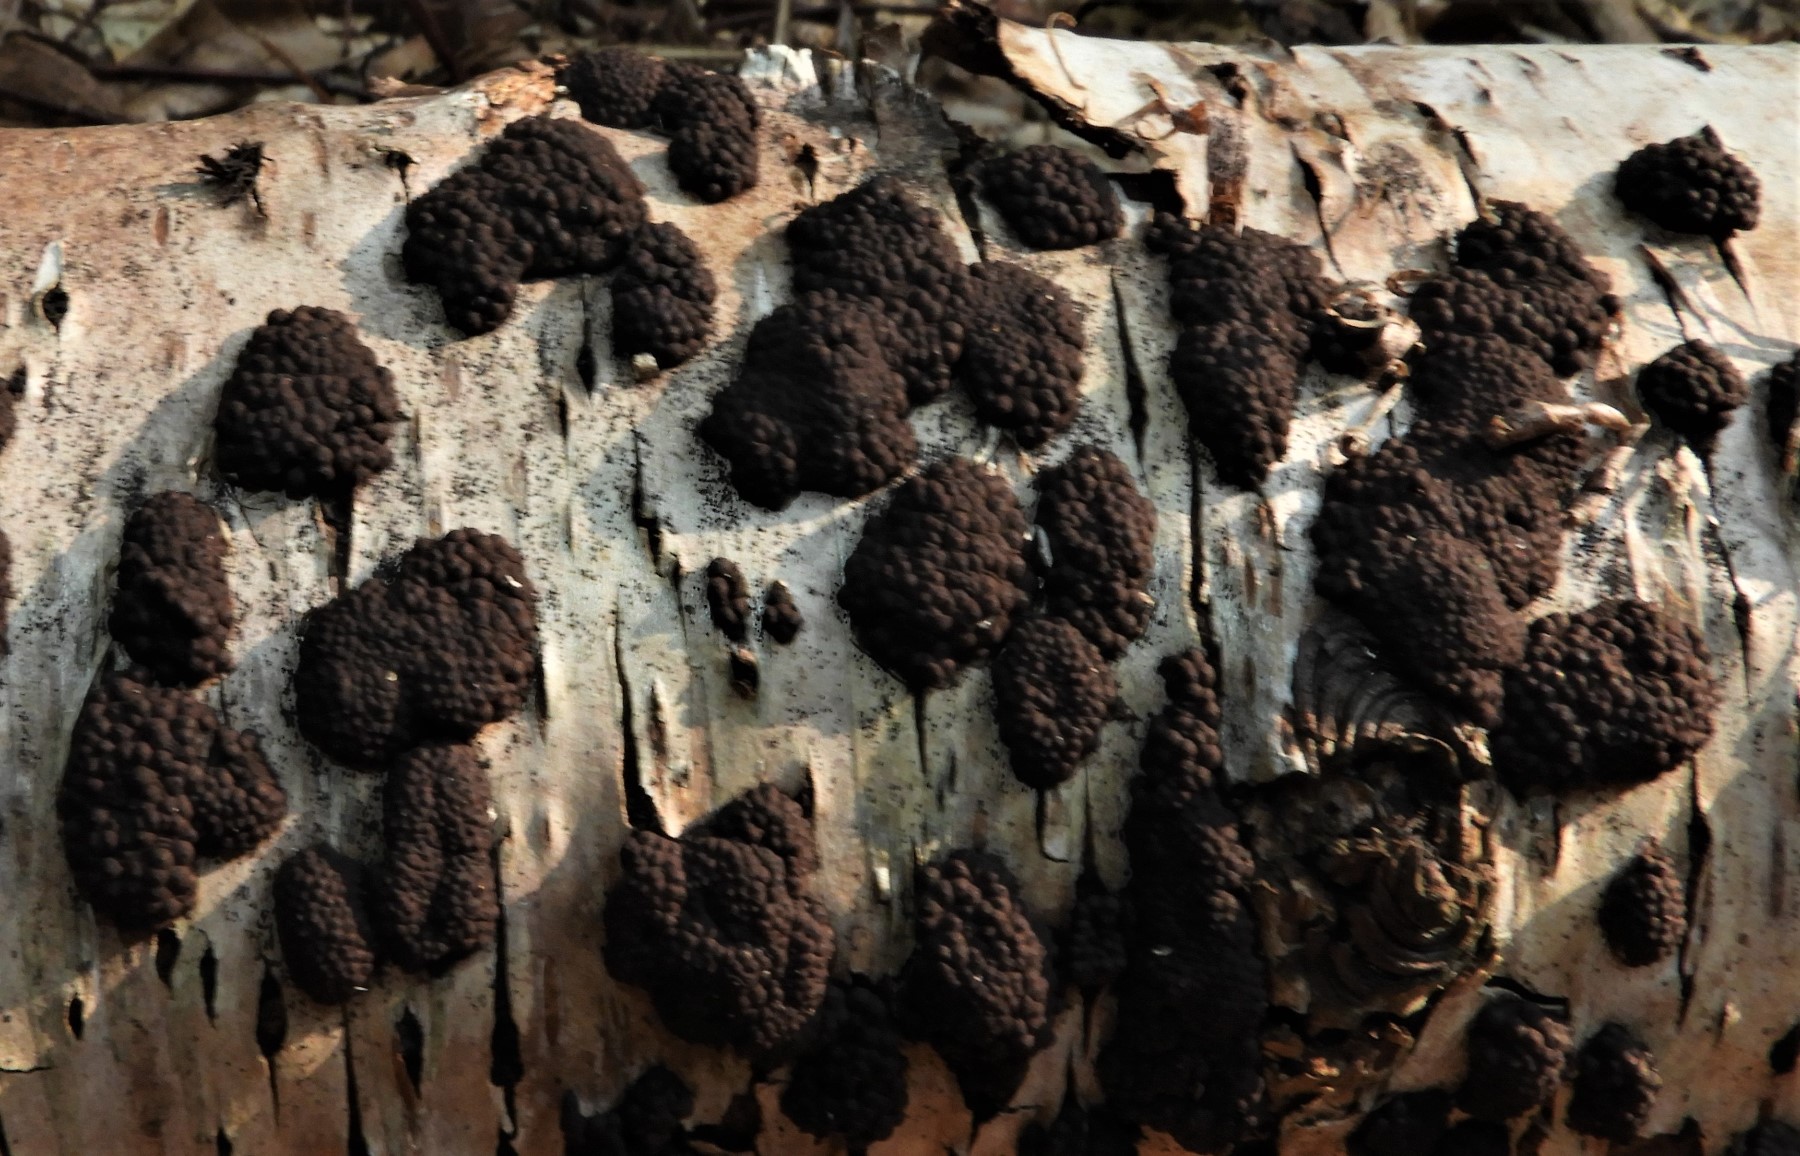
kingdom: Fungi
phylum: Ascomycota
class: Sordariomycetes
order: Xylariales
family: Hypoxylaceae
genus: Jackrogersella
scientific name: Jackrogersella multiformis
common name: foranderlig kulbær
